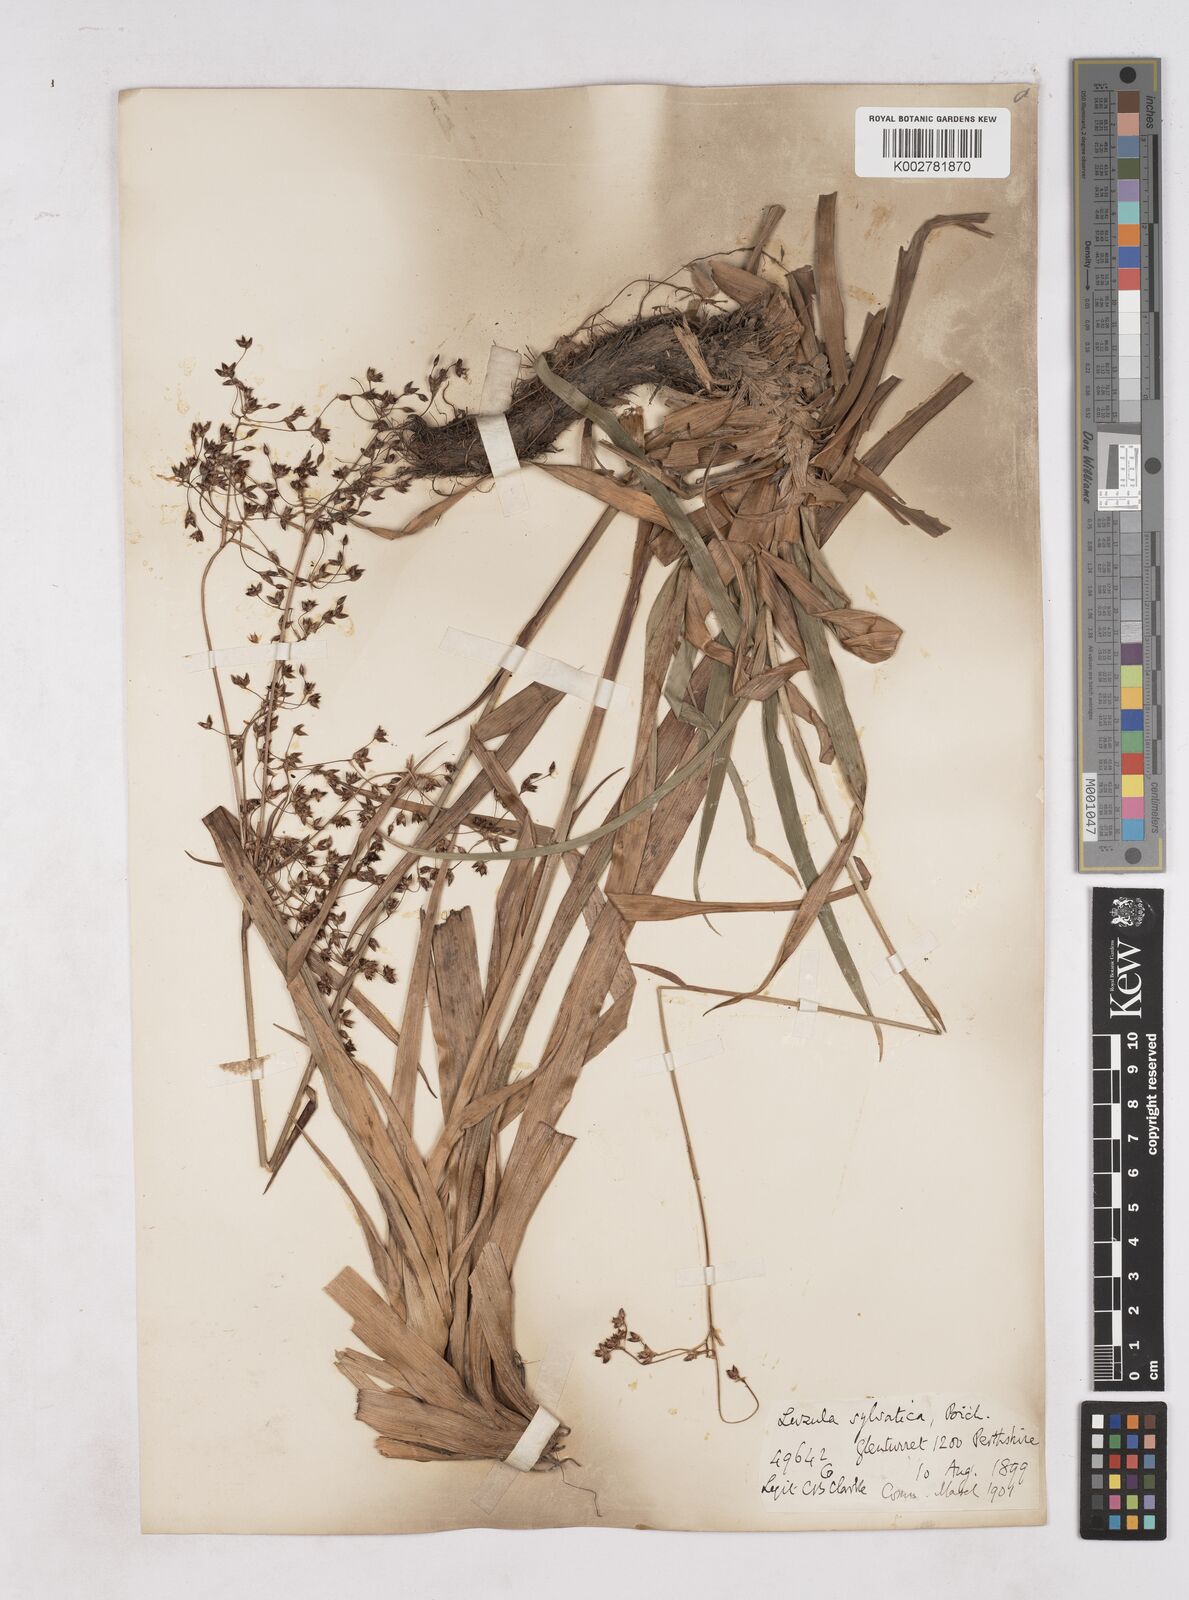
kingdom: Plantae
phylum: Tracheophyta
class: Liliopsida
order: Poales
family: Juncaceae
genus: Luzula
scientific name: Luzula sylvatica
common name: Great wood-rush
